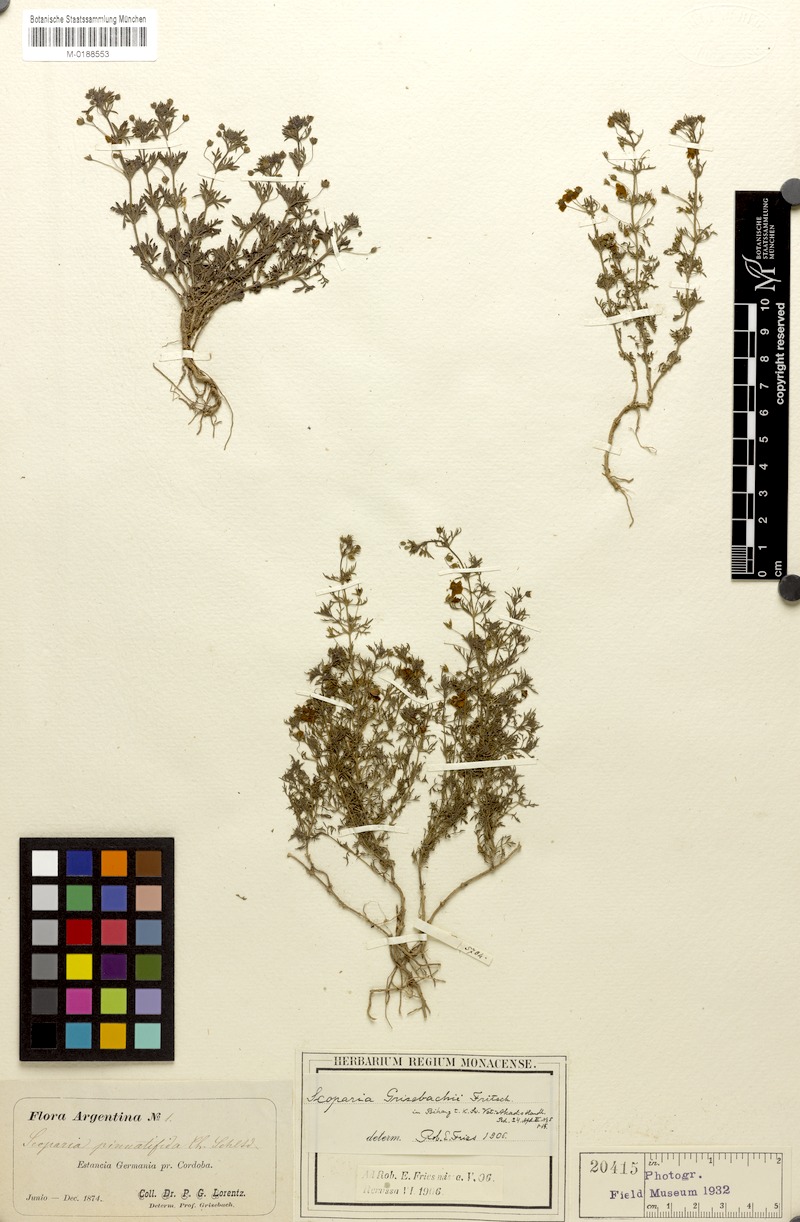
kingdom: Plantae
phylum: Tracheophyta
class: Magnoliopsida
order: Lamiales
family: Plantaginaceae
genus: Scoparia
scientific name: Scoparia montevidensis
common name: Broomwort
